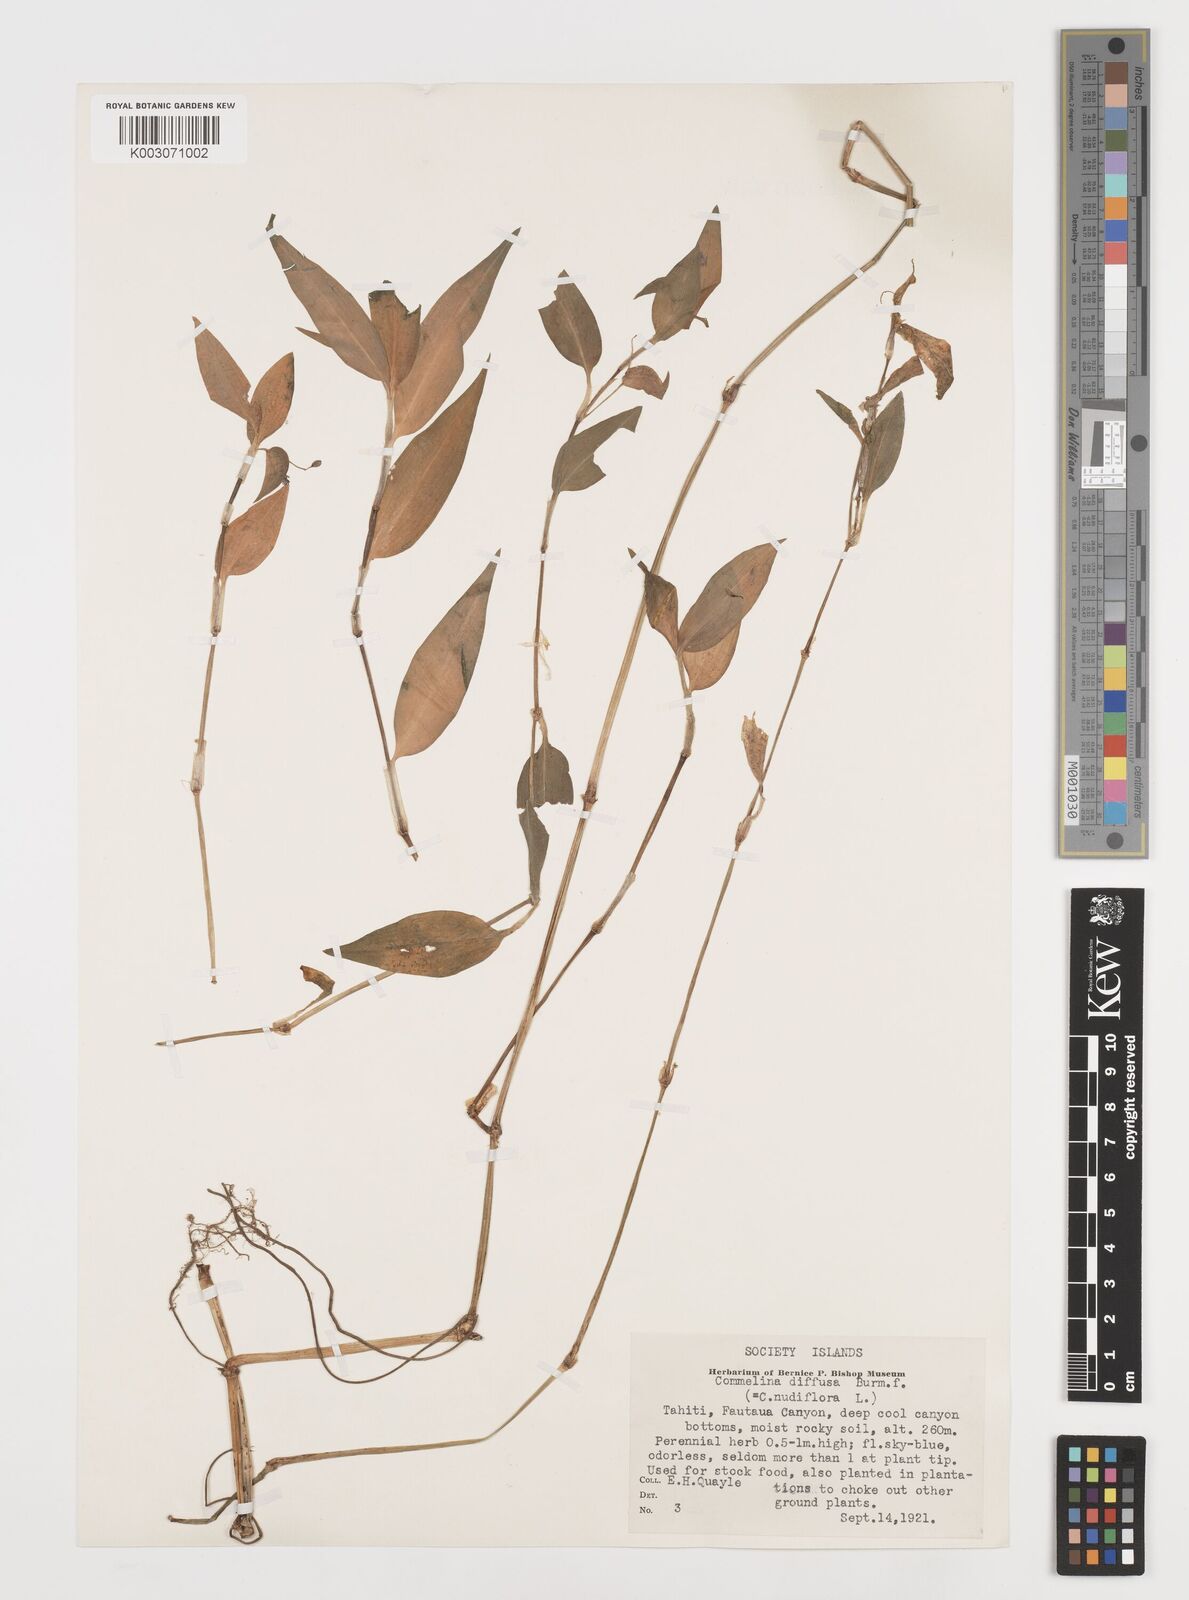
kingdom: Plantae
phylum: Tracheophyta
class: Liliopsida
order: Commelinales
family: Commelinaceae
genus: Commelina
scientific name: Commelina diffusa
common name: Climbing dayflower
